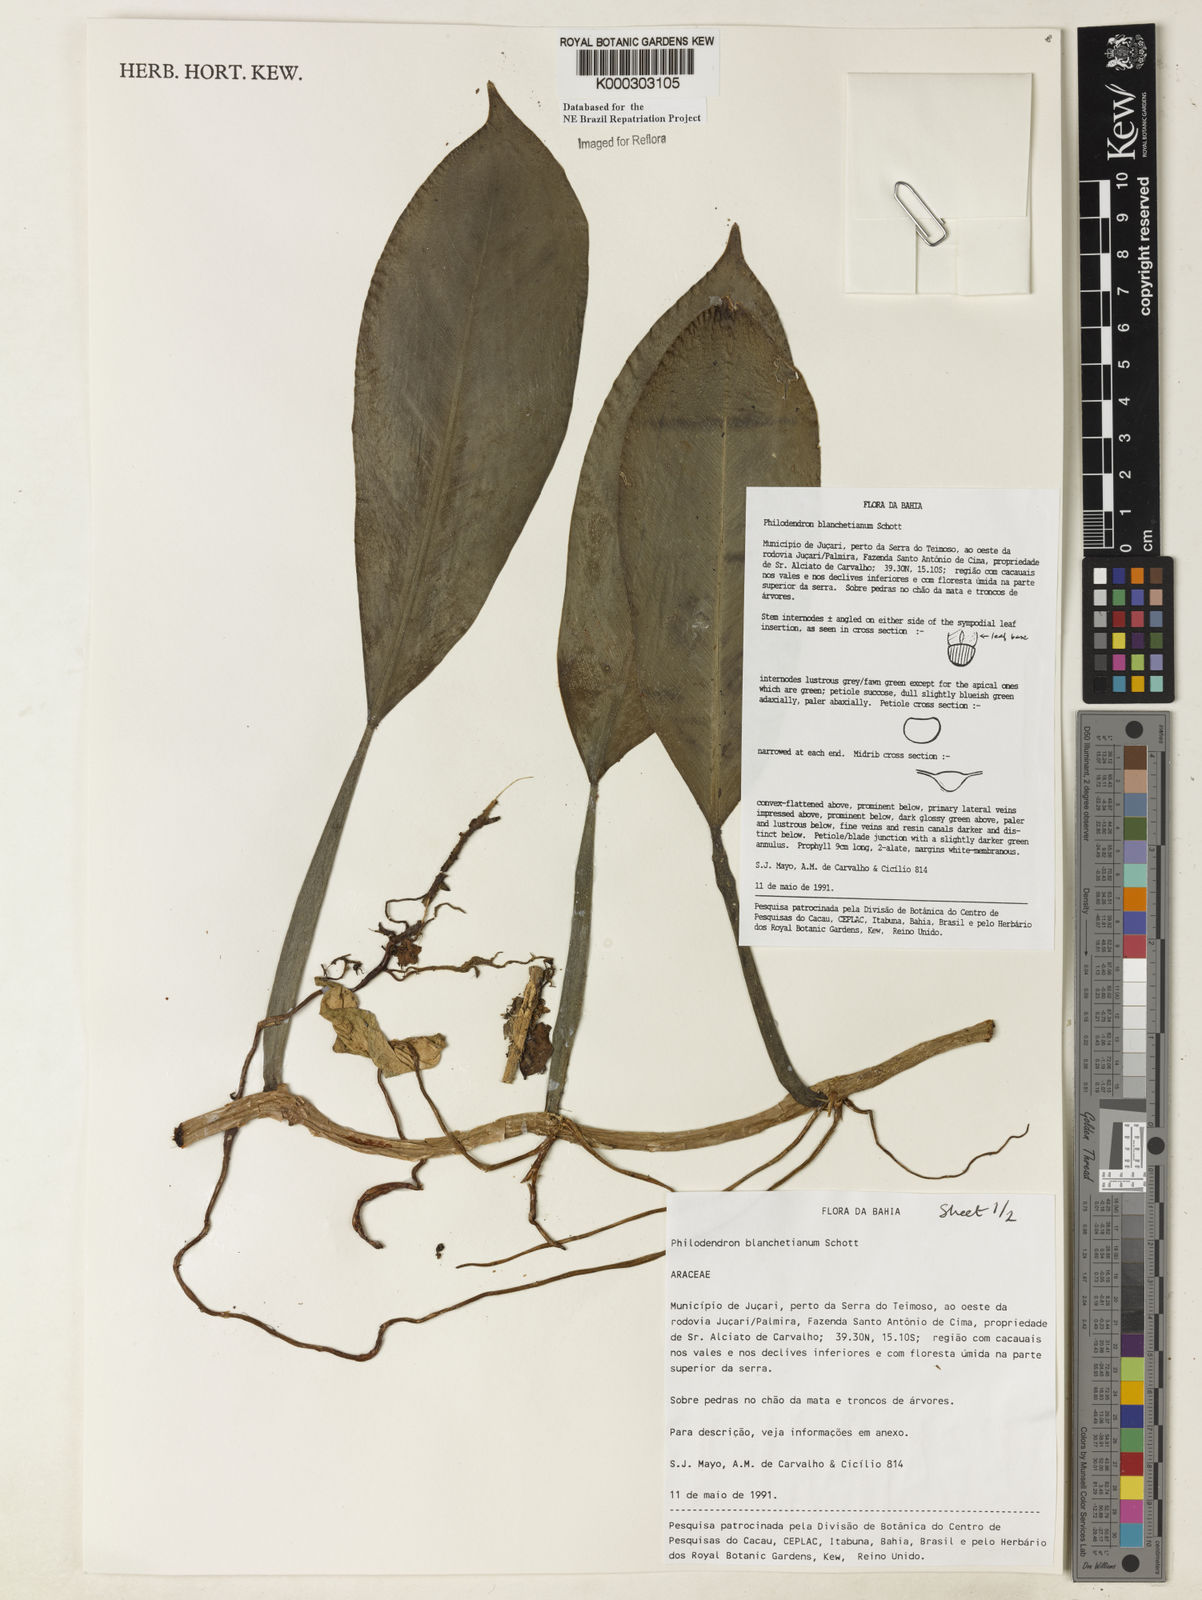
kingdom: Plantae
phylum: Tracheophyta
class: Liliopsida
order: Alismatales
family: Araceae
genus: Philodendron
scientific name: Philodendron blanchetianum
